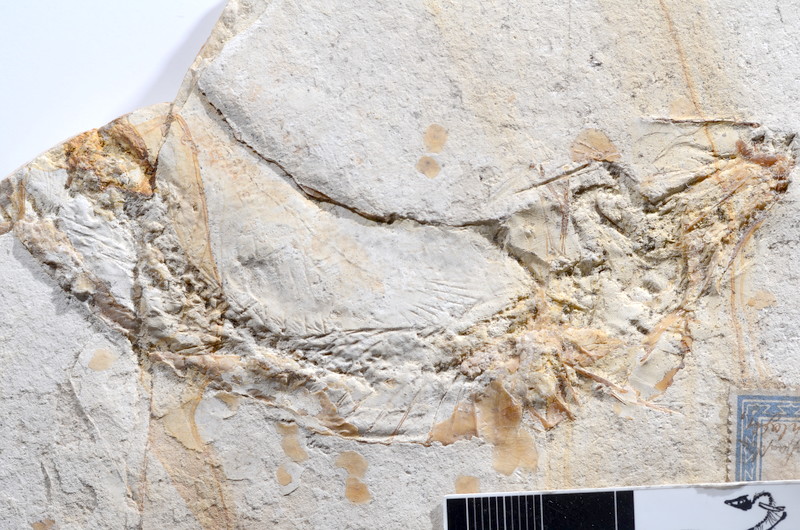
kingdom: Animalia
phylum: Chordata
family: Ascalaboidae
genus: Tharsis
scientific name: Tharsis dubius
